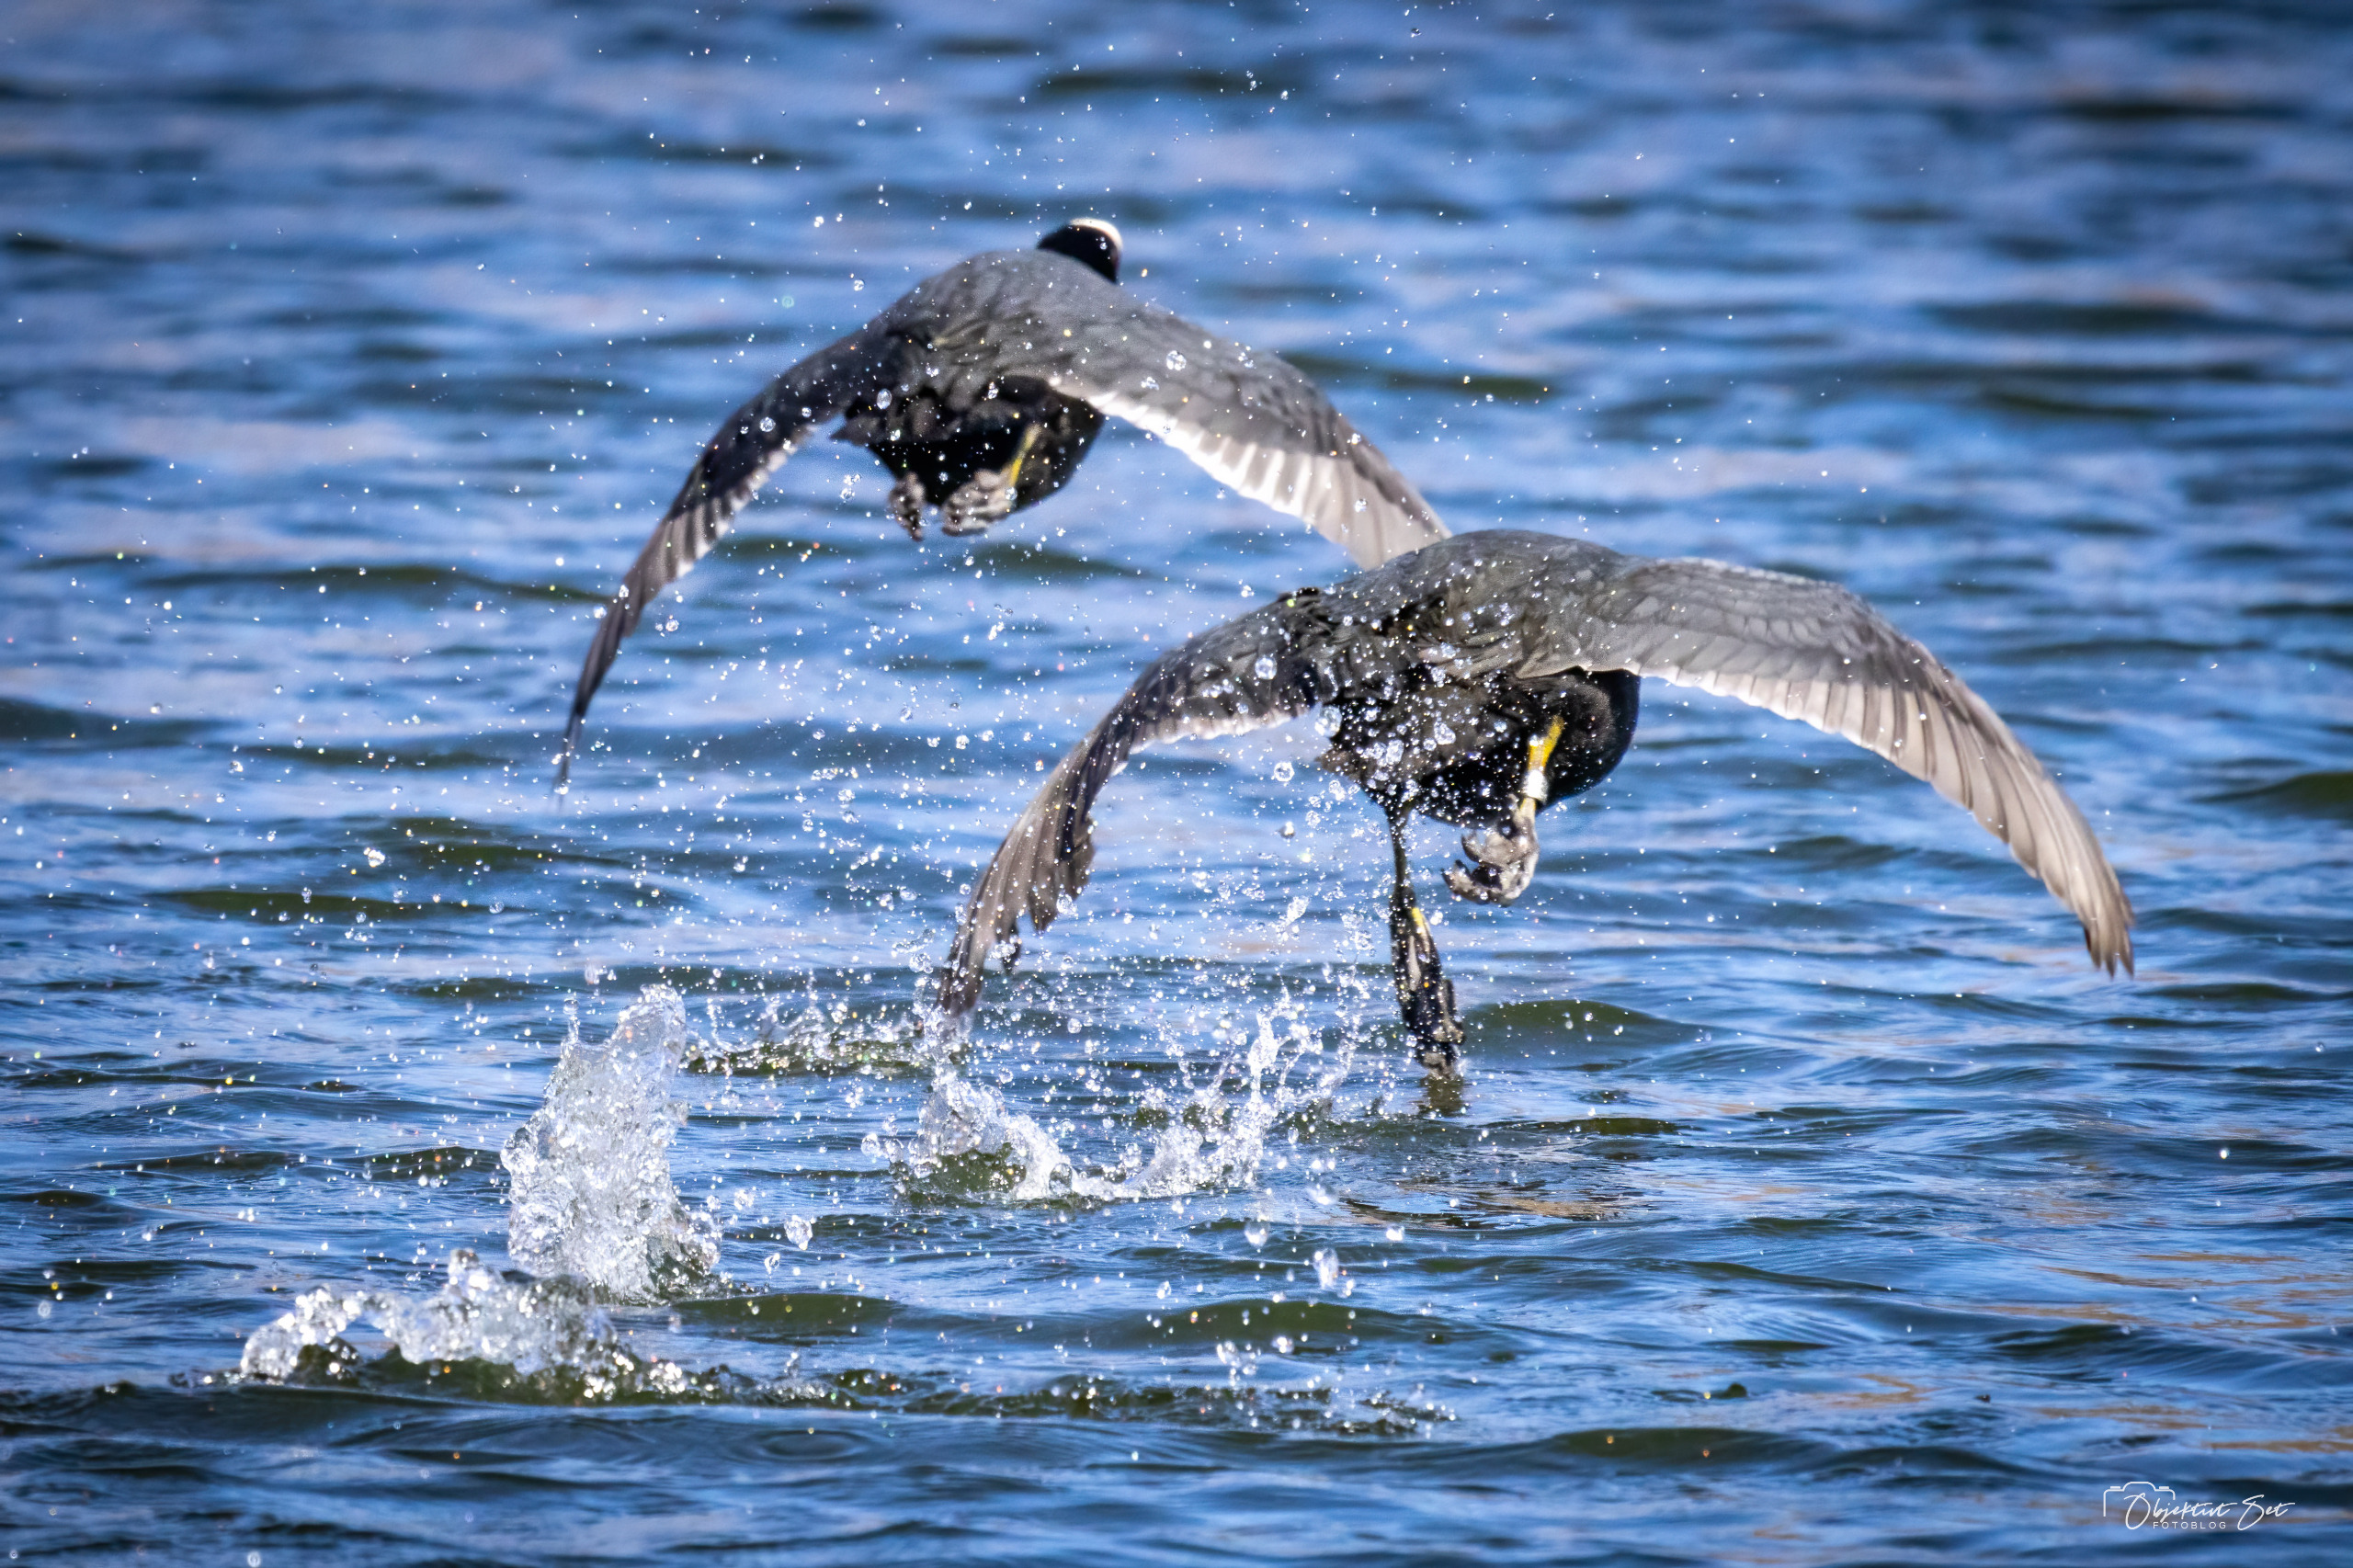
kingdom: Animalia
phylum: Chordata
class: Aves
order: Gruiformes
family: Rallidae
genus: Fulica
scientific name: Fulica atra
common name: Blishøne
